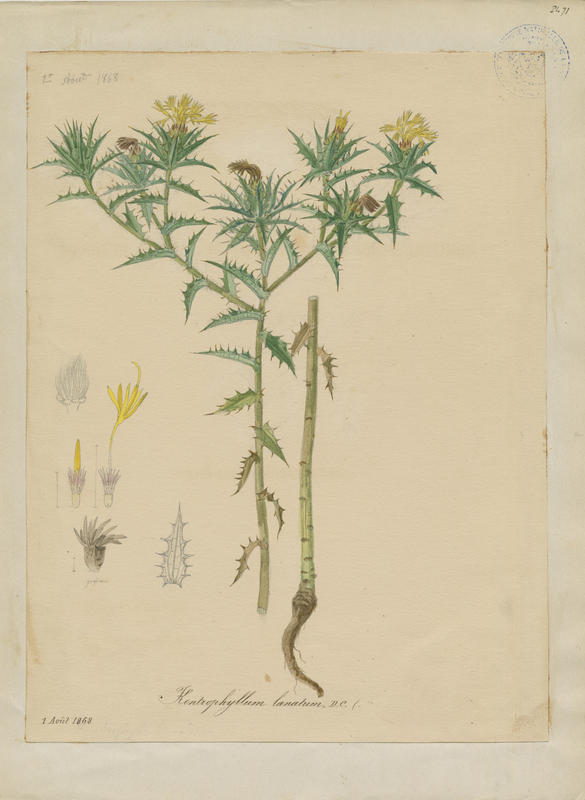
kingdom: Plantae
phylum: Tracheophyta
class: Magnoliopsida
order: Asterales
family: Asteraceae
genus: Carthamus
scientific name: Carthamus lanatus
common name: Downy safflower
